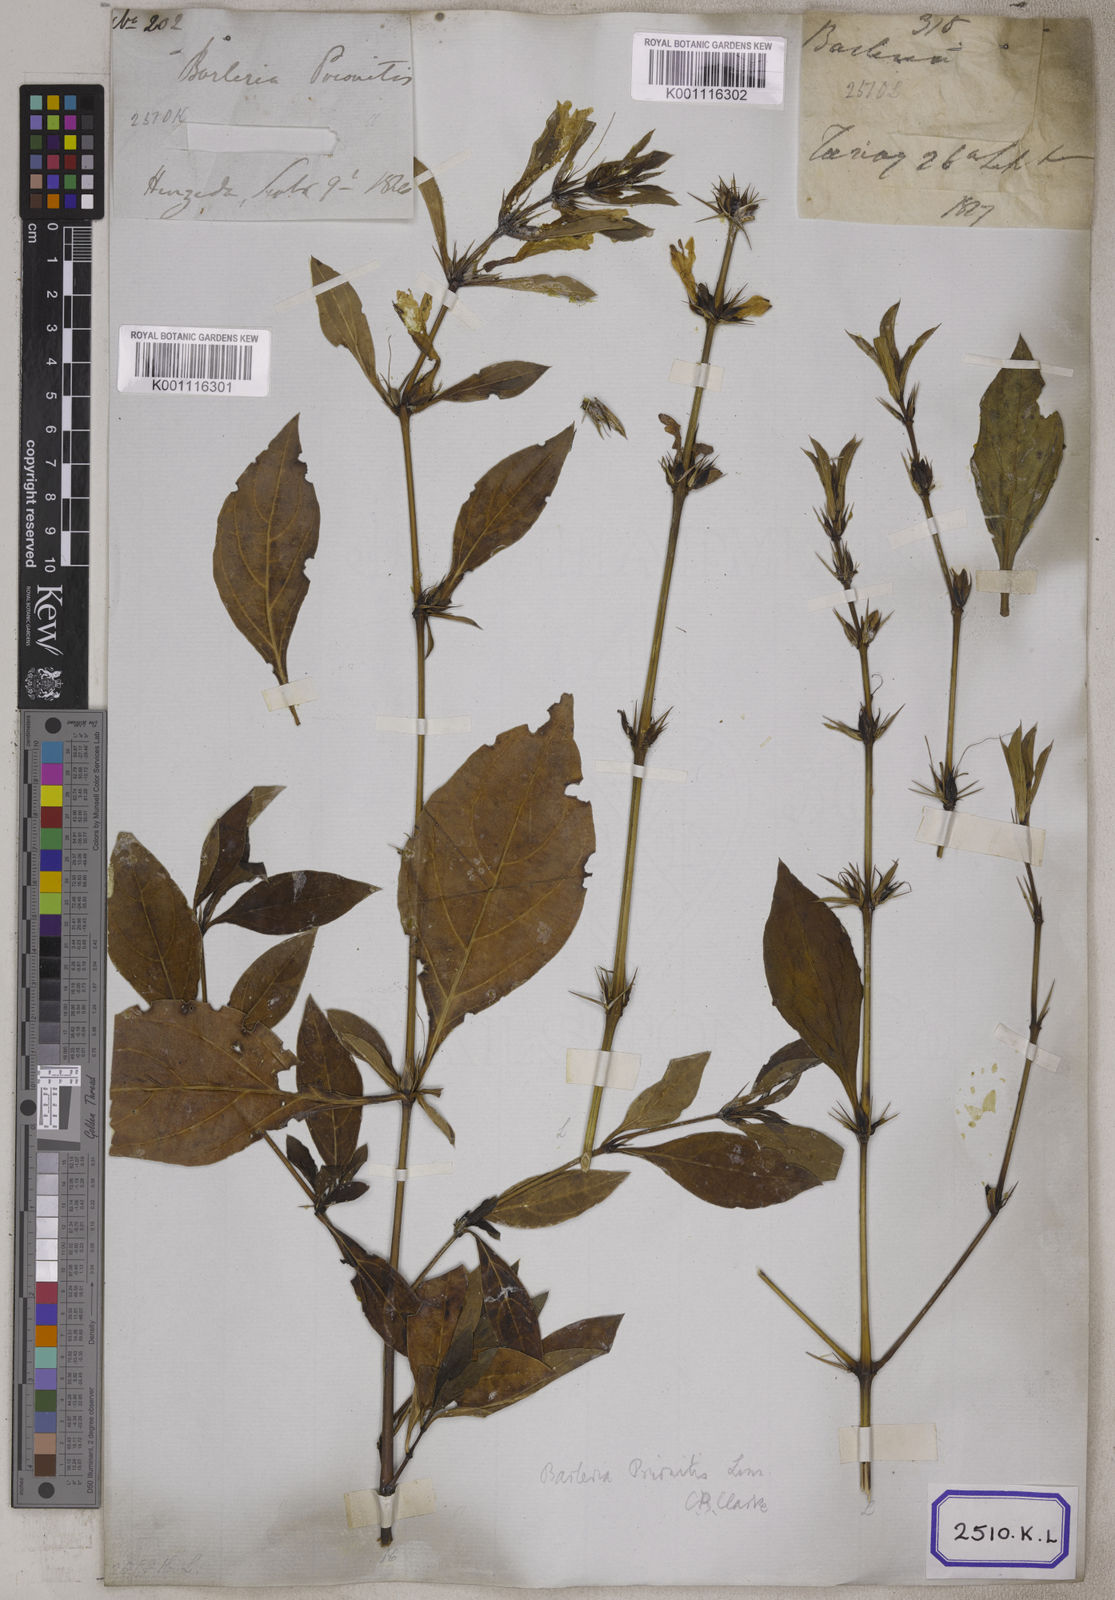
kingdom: Plantae
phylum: Tracheophyta
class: Magnoliopsida
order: Lamiales
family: Acanthaceae
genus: Barleria
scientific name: Barleria prionitis
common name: Barleria
